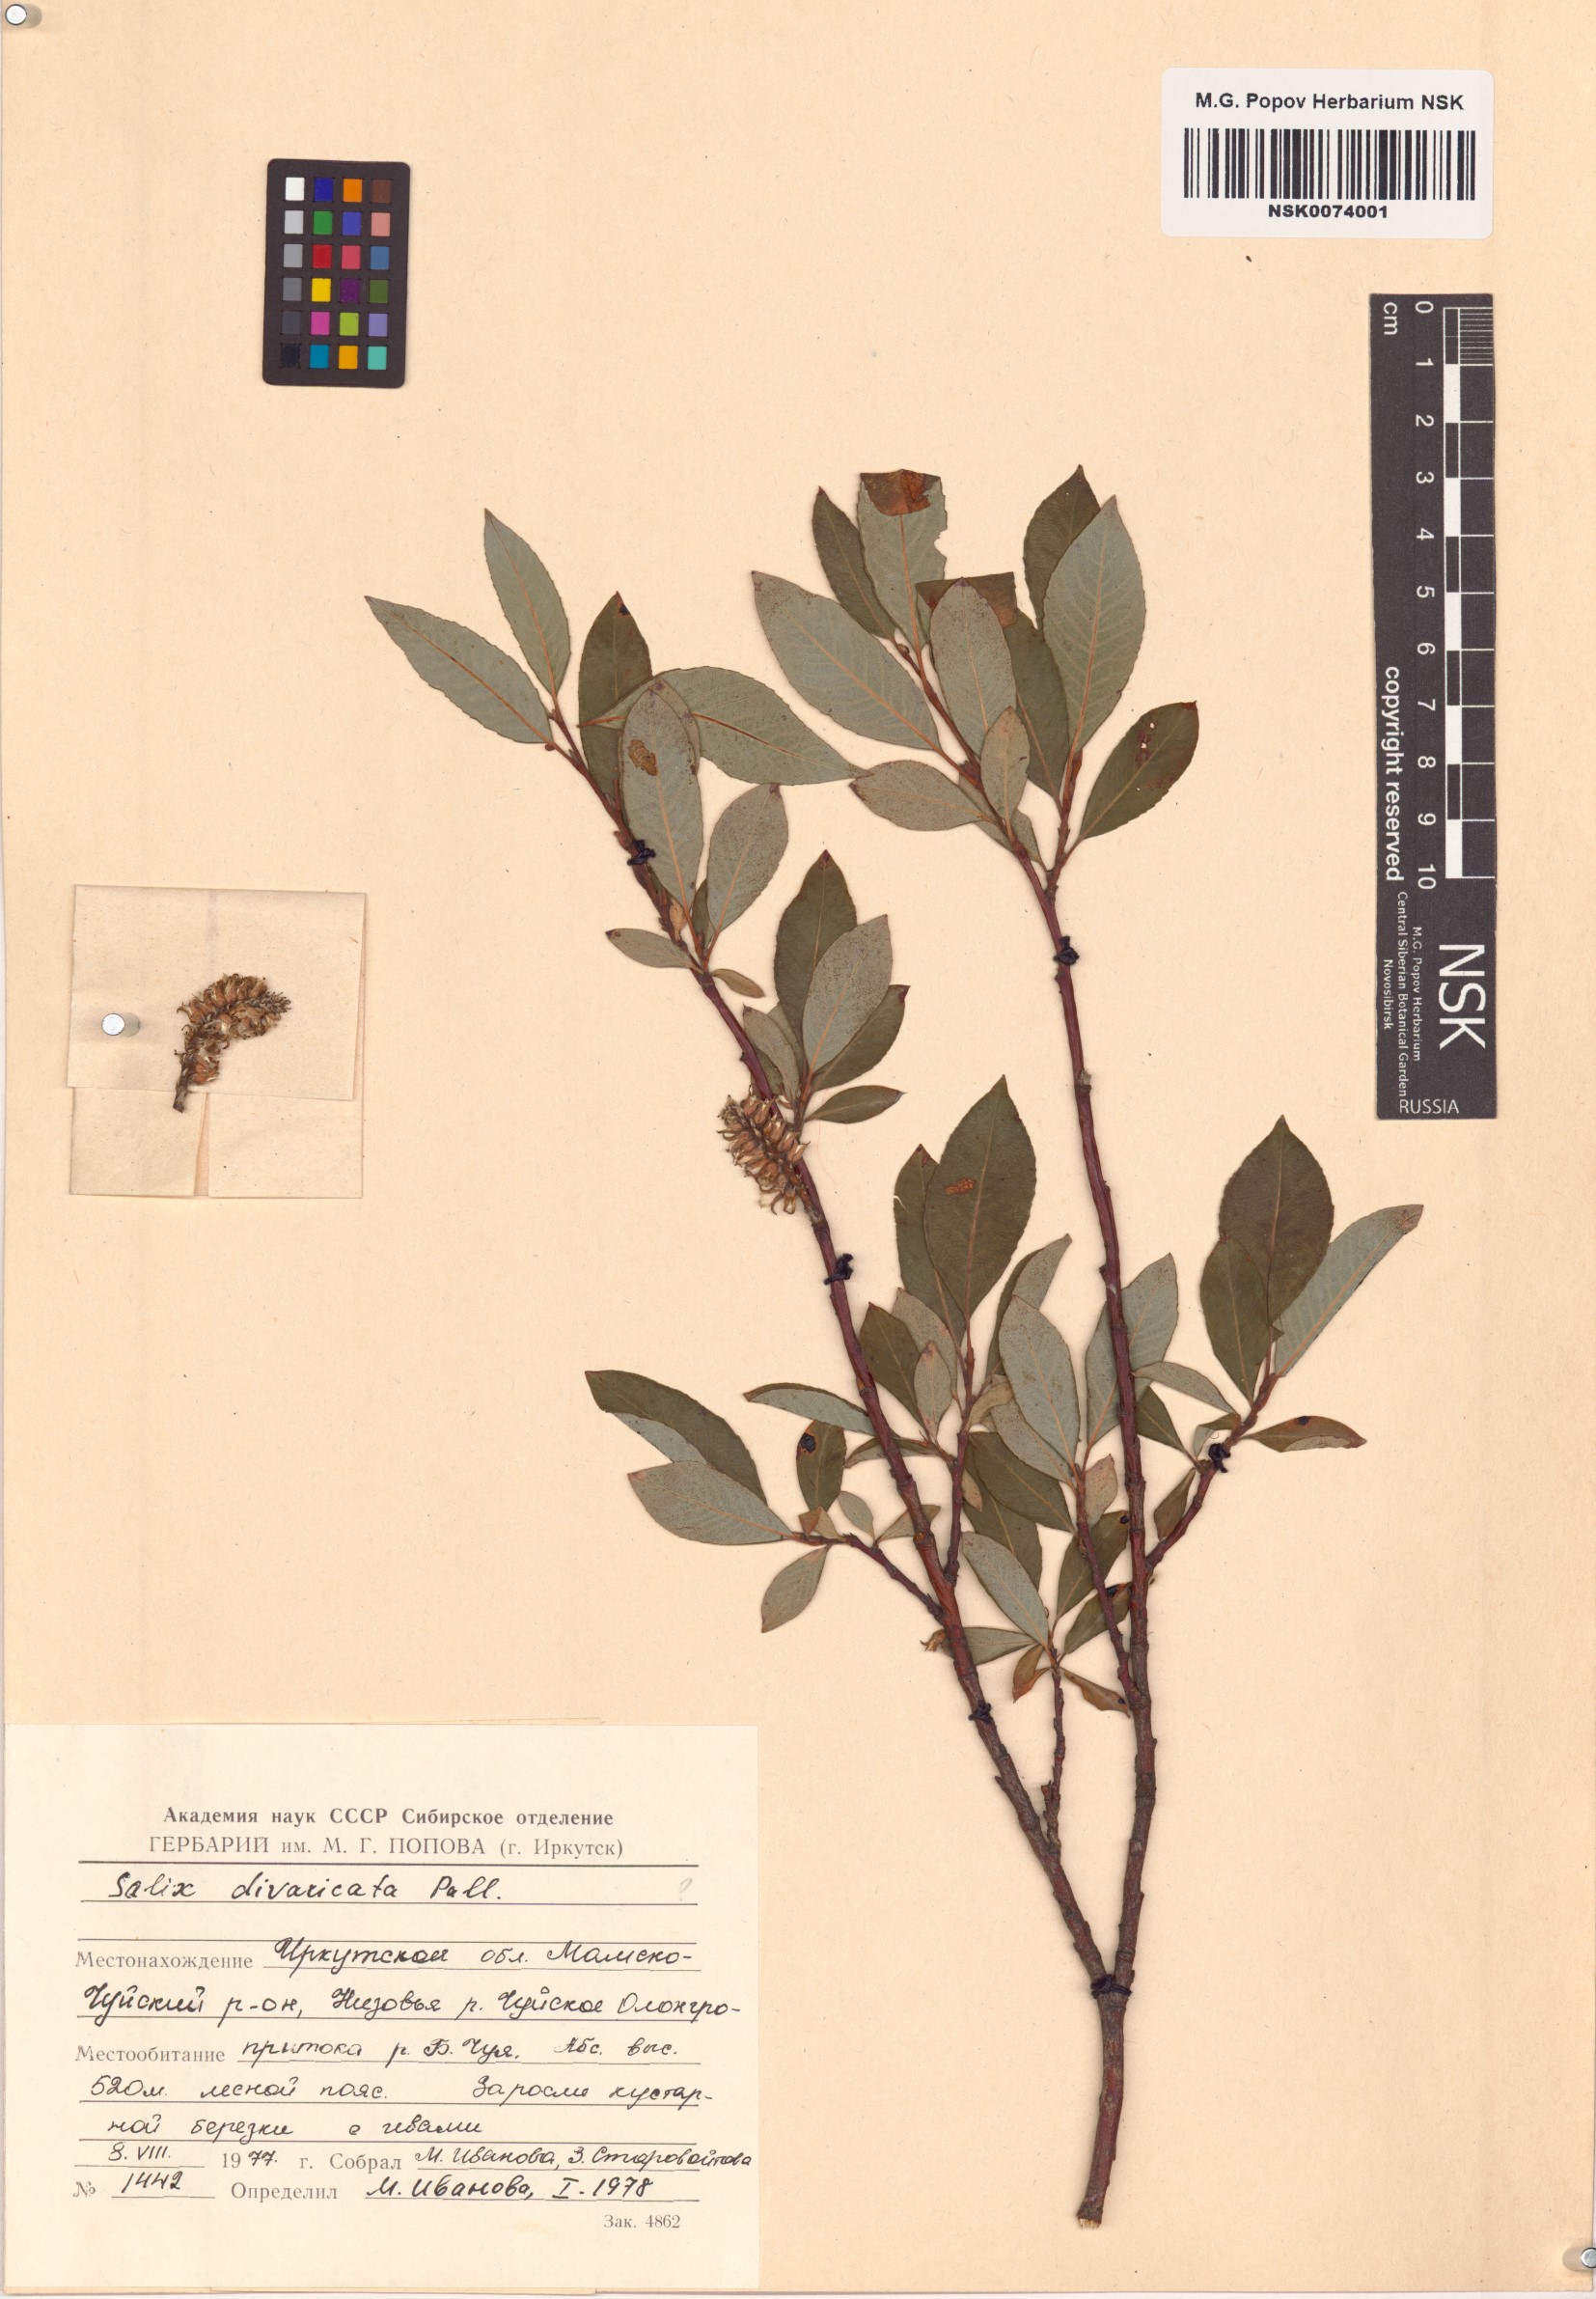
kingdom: Plantae
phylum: Tracheophyta
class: Magnoliopsida
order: Malpighiales
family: Salicaceae
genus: Salix
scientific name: Salix divaricata
